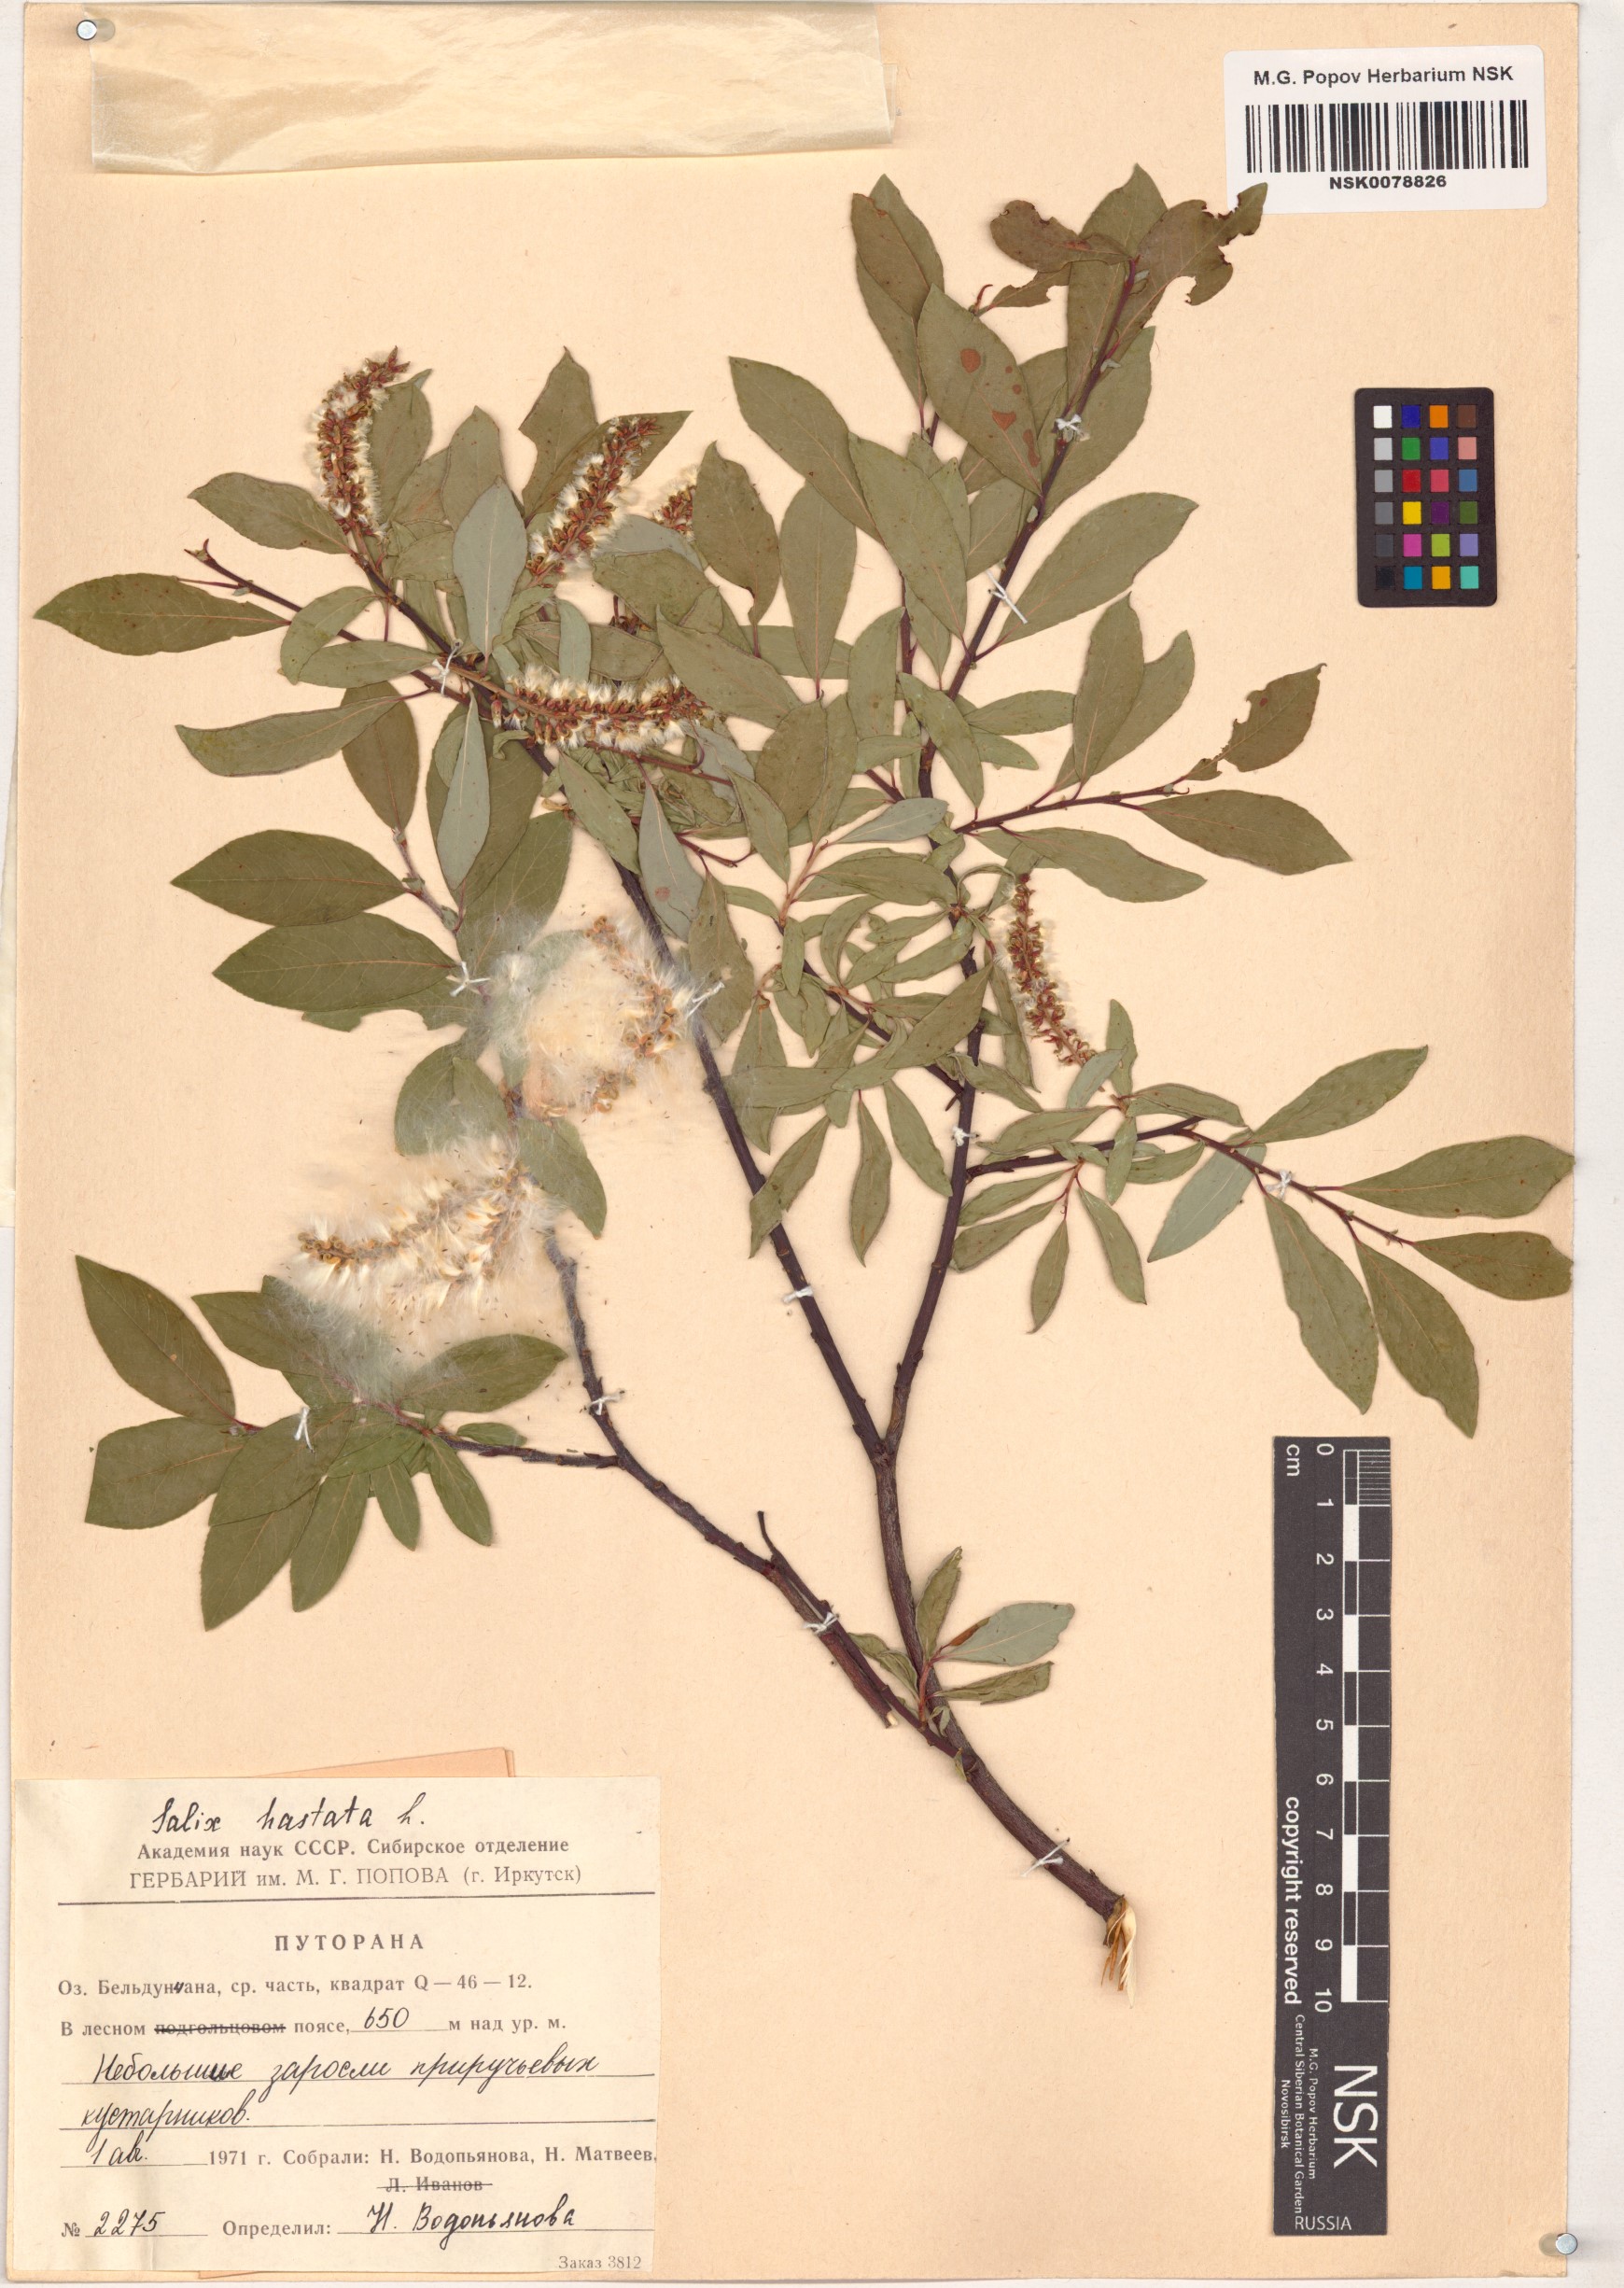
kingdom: Plantae
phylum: Tracheophyta
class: Magnoliopsida
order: Malpighiales
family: Salicaceae
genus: Salix
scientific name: Salix hastata
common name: Halberd willow
